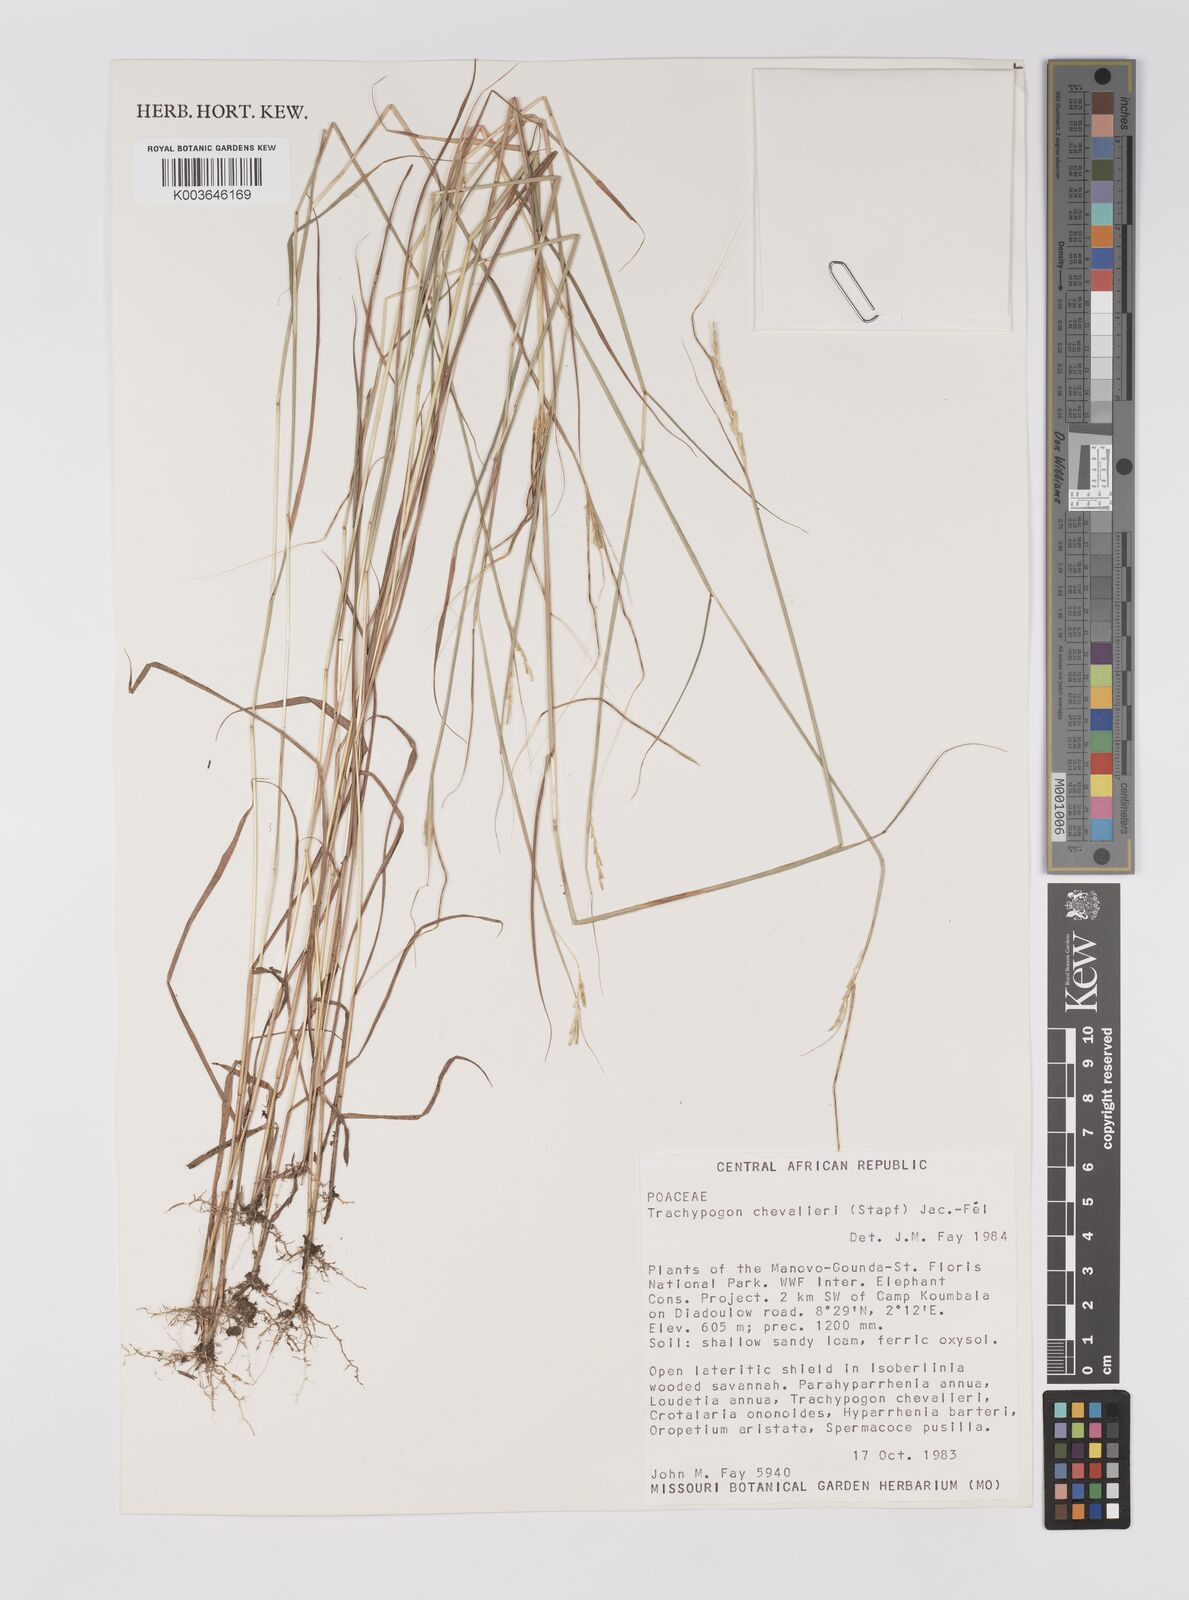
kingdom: Plantae
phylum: Tracheophyta
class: Liliopsida
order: Poales
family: Poaceae
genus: Trachypogon
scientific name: Trachypogon chevalieri
